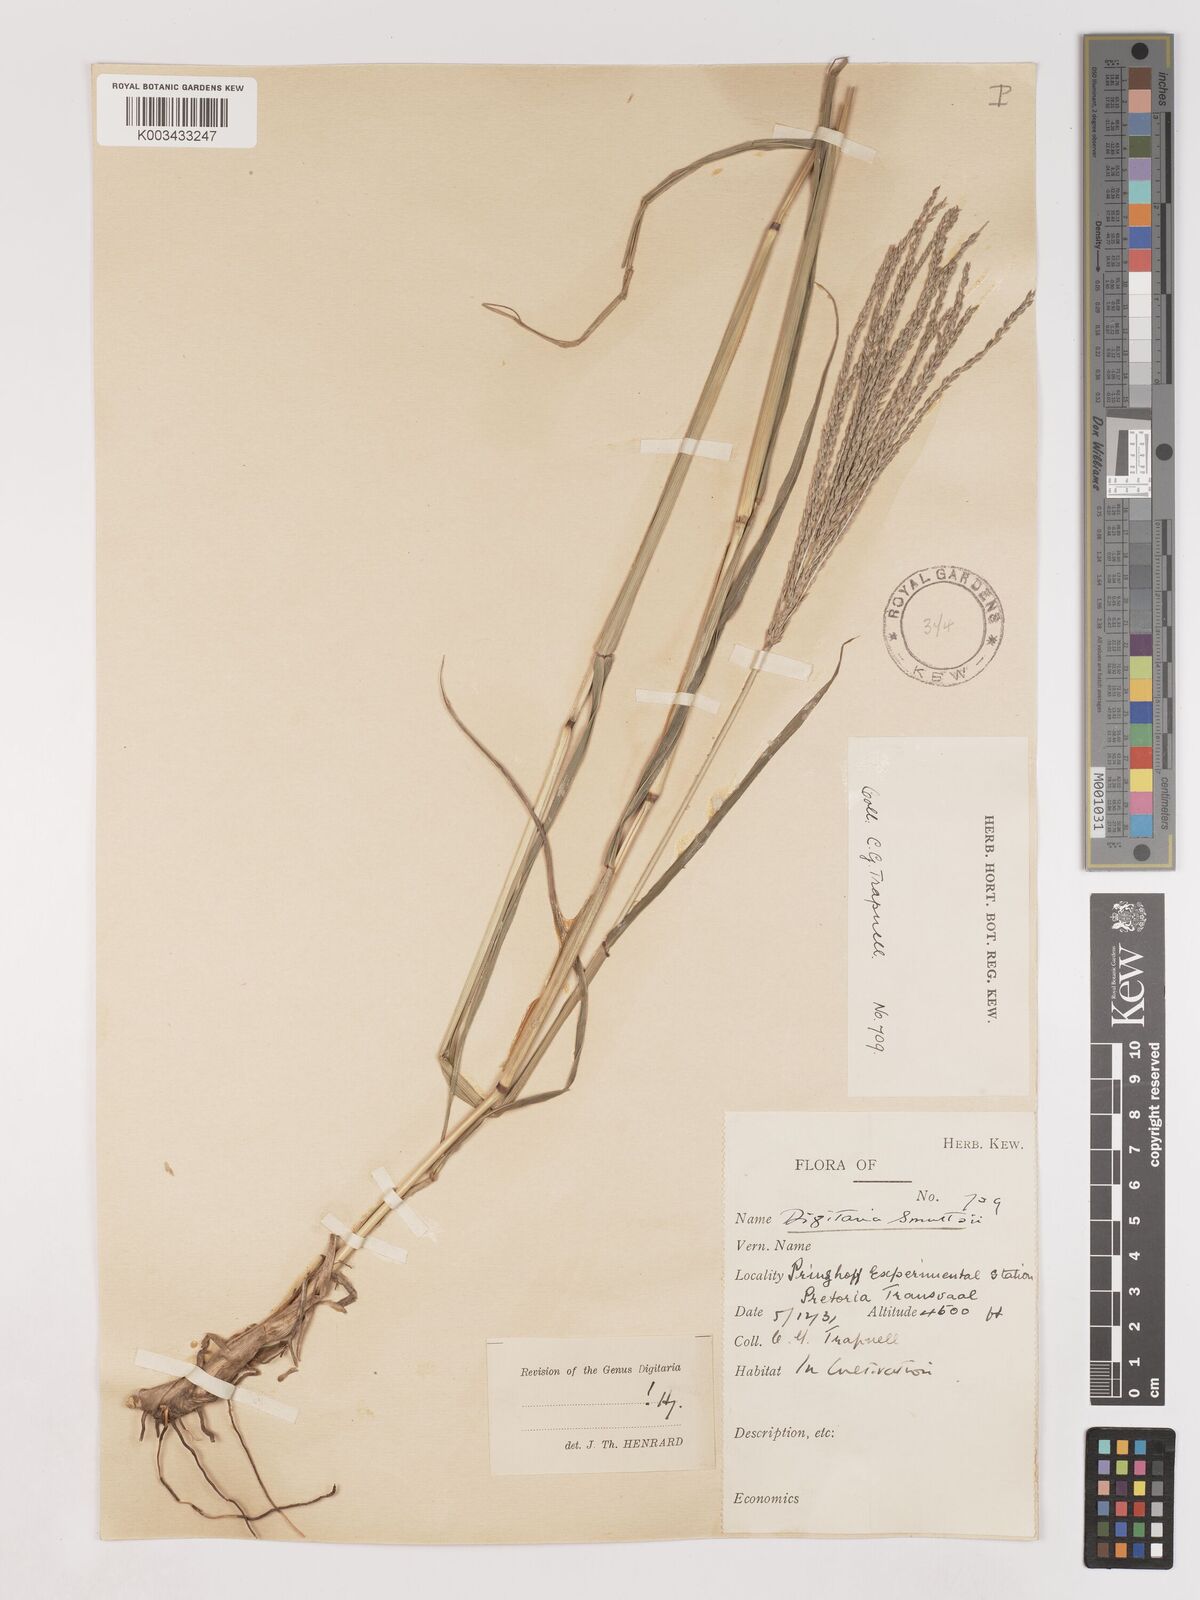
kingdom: Plantae
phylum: Tracheophyta
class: Liliopsida
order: Poales
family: Poaceae
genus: Digitaria
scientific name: Digitaria eriantha
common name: Digitgrass
